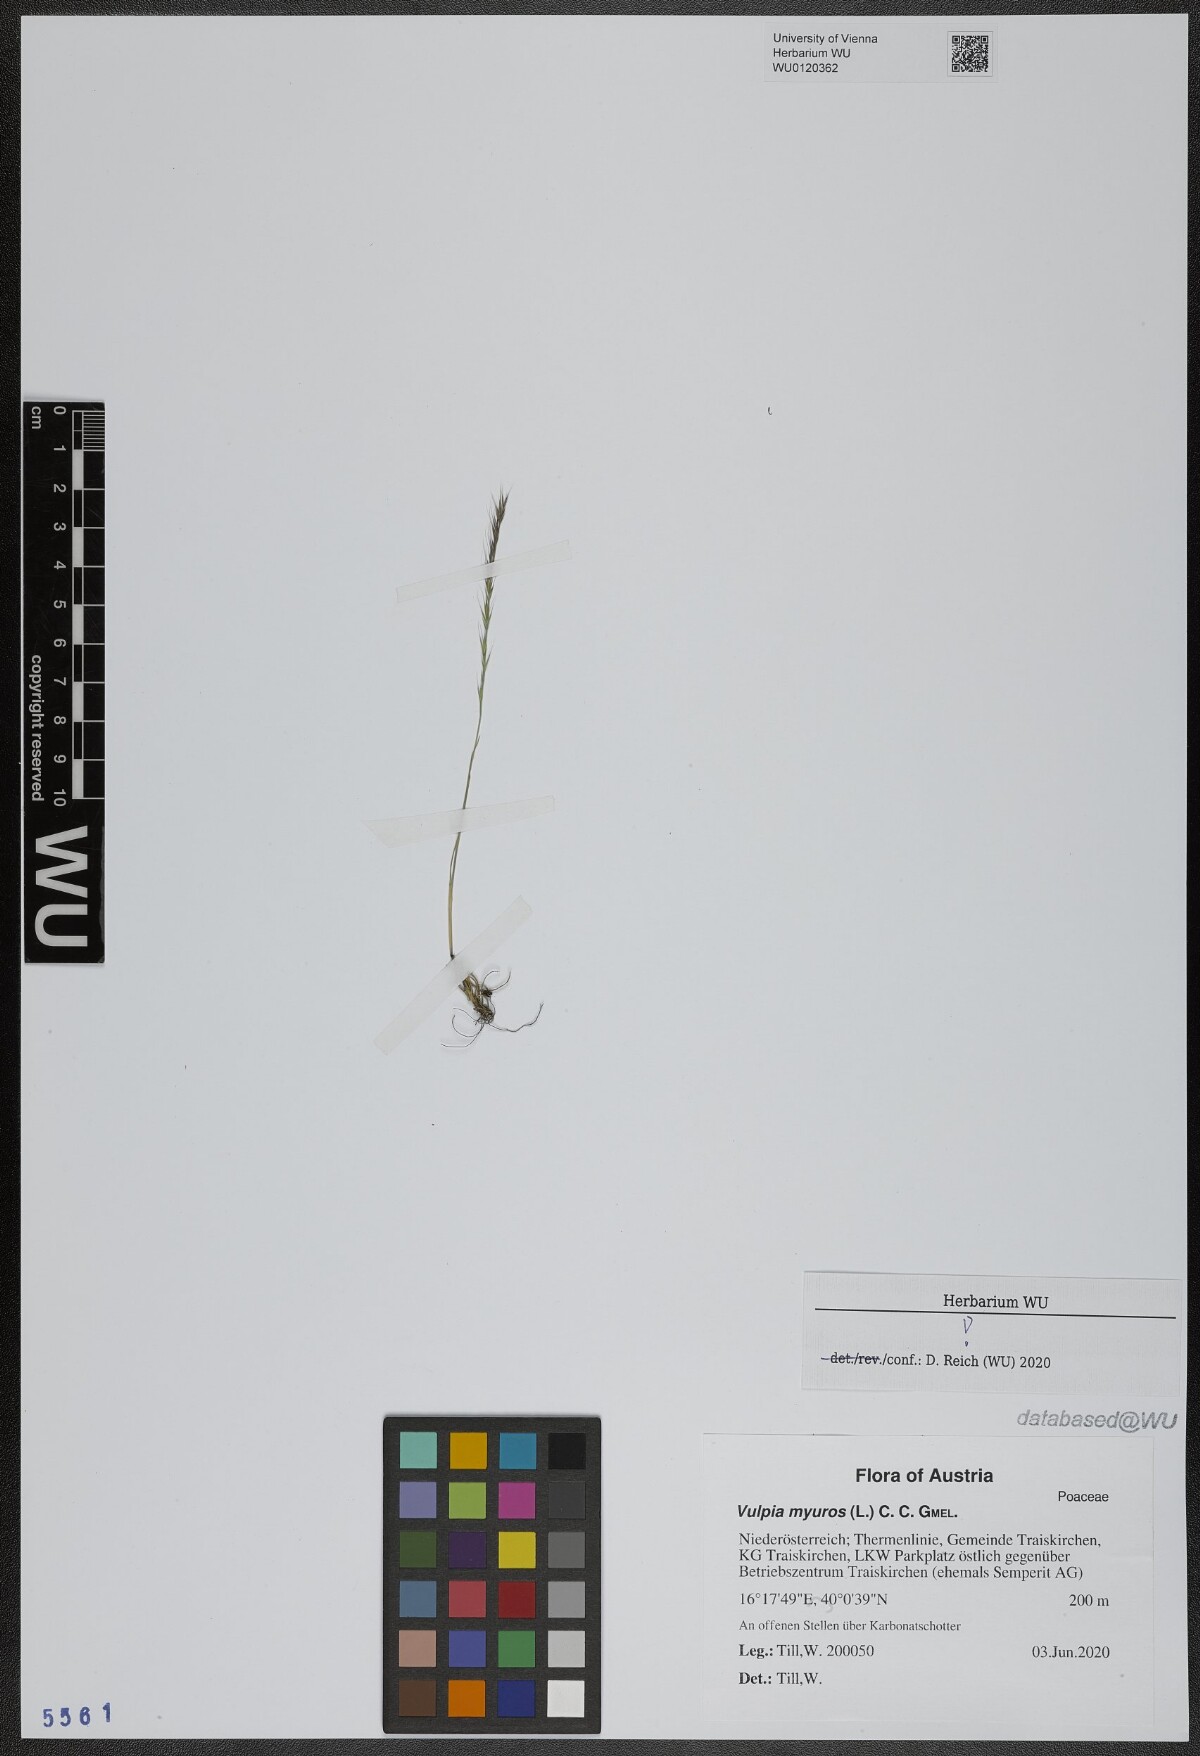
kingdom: Plantae
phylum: Tracheophyta
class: Liliopsida
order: Poales
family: Poaceae
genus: Festuca
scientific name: Festuca myuros
